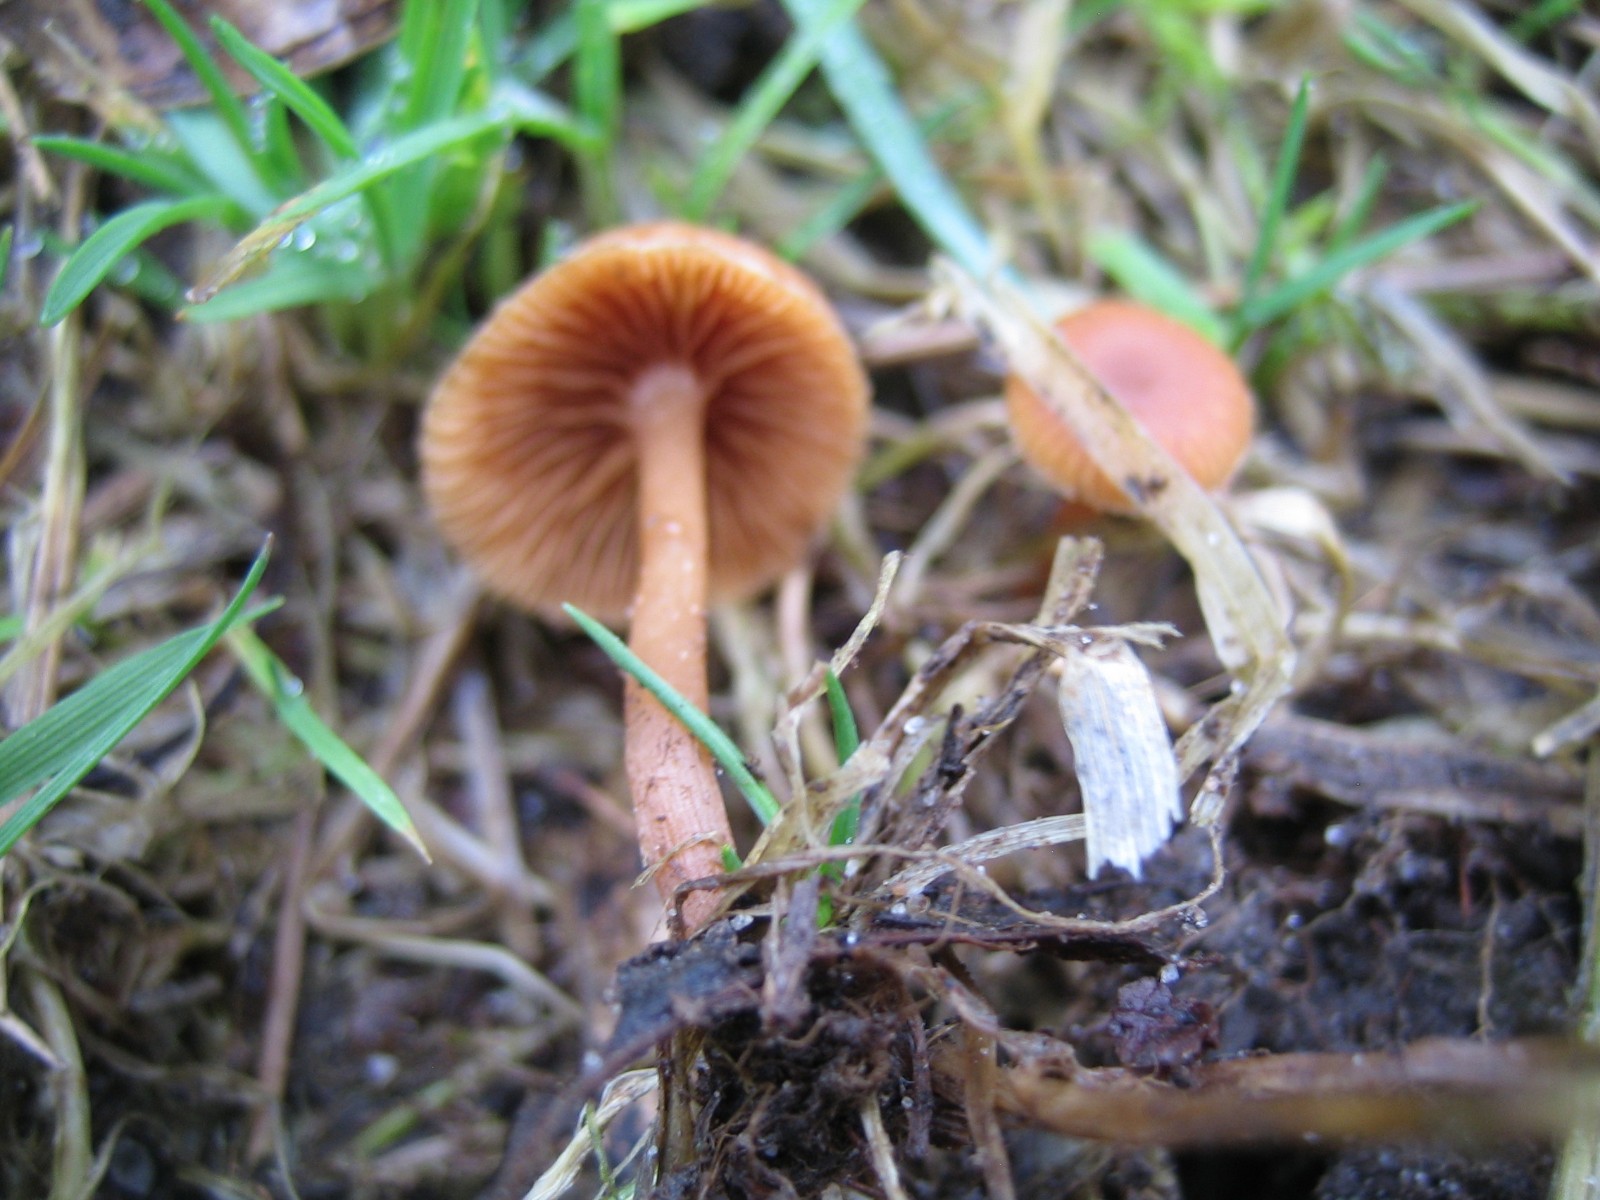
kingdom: Fungi
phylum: Basidiomycota
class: Agaricomycetes
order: Agaricales
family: Tubariaceae
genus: Tubaria
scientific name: Tubaria furfuracea
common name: kliddet fnughat
